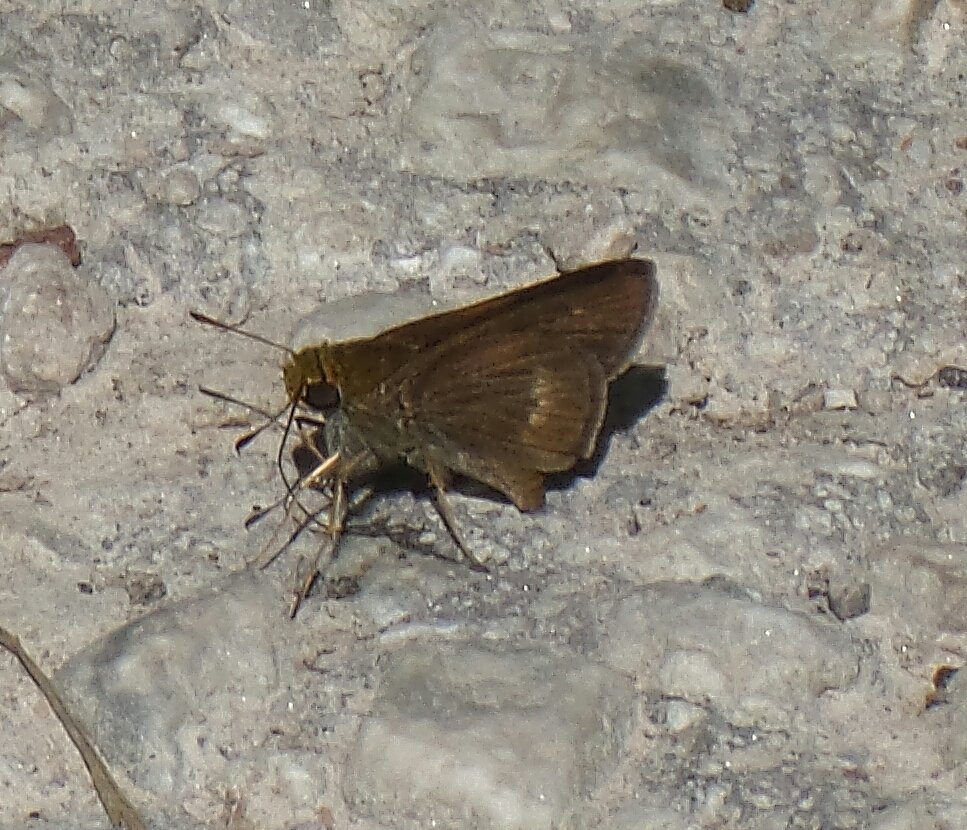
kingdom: Animalia
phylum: Arthropoda
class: Insecta
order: Lepidoptera
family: Hesperiidae
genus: Euphyes
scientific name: Euphyes vestris
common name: Dun Skipper
